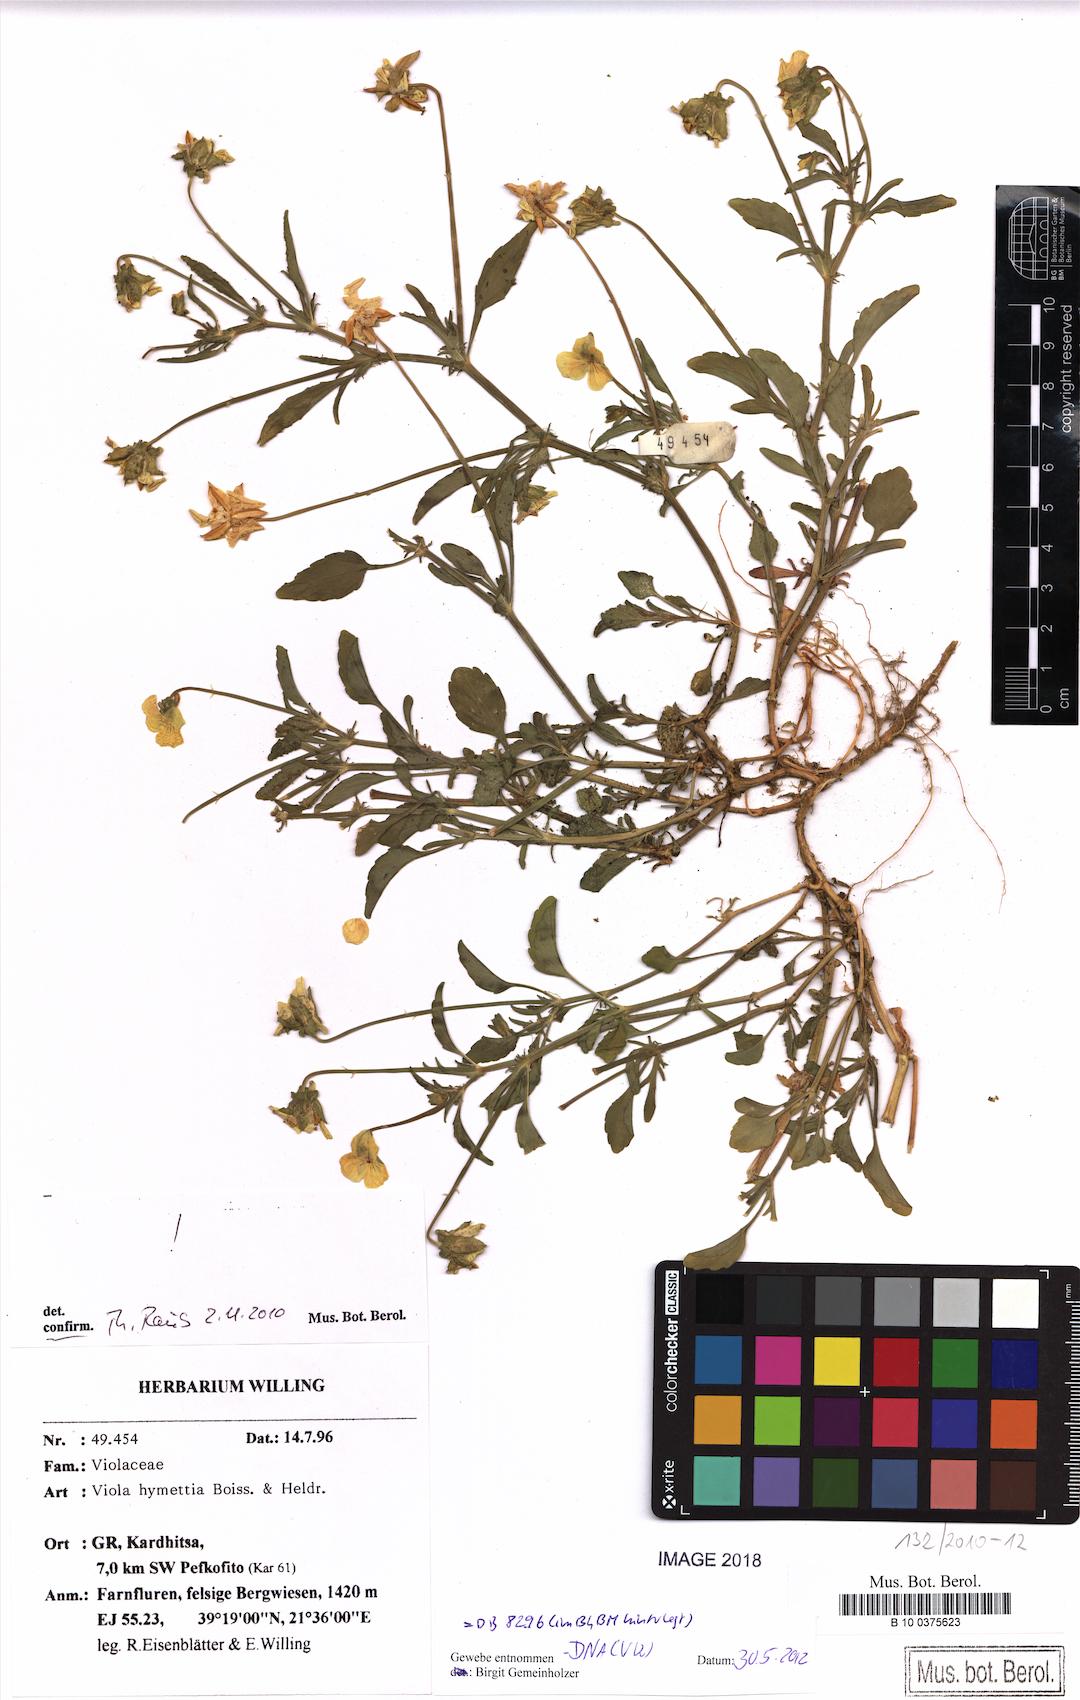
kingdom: Plantae
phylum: Tracheophyta
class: Magnoliopsida
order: Malpighiales
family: Violaceae
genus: Viola
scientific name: Viola hymettia
